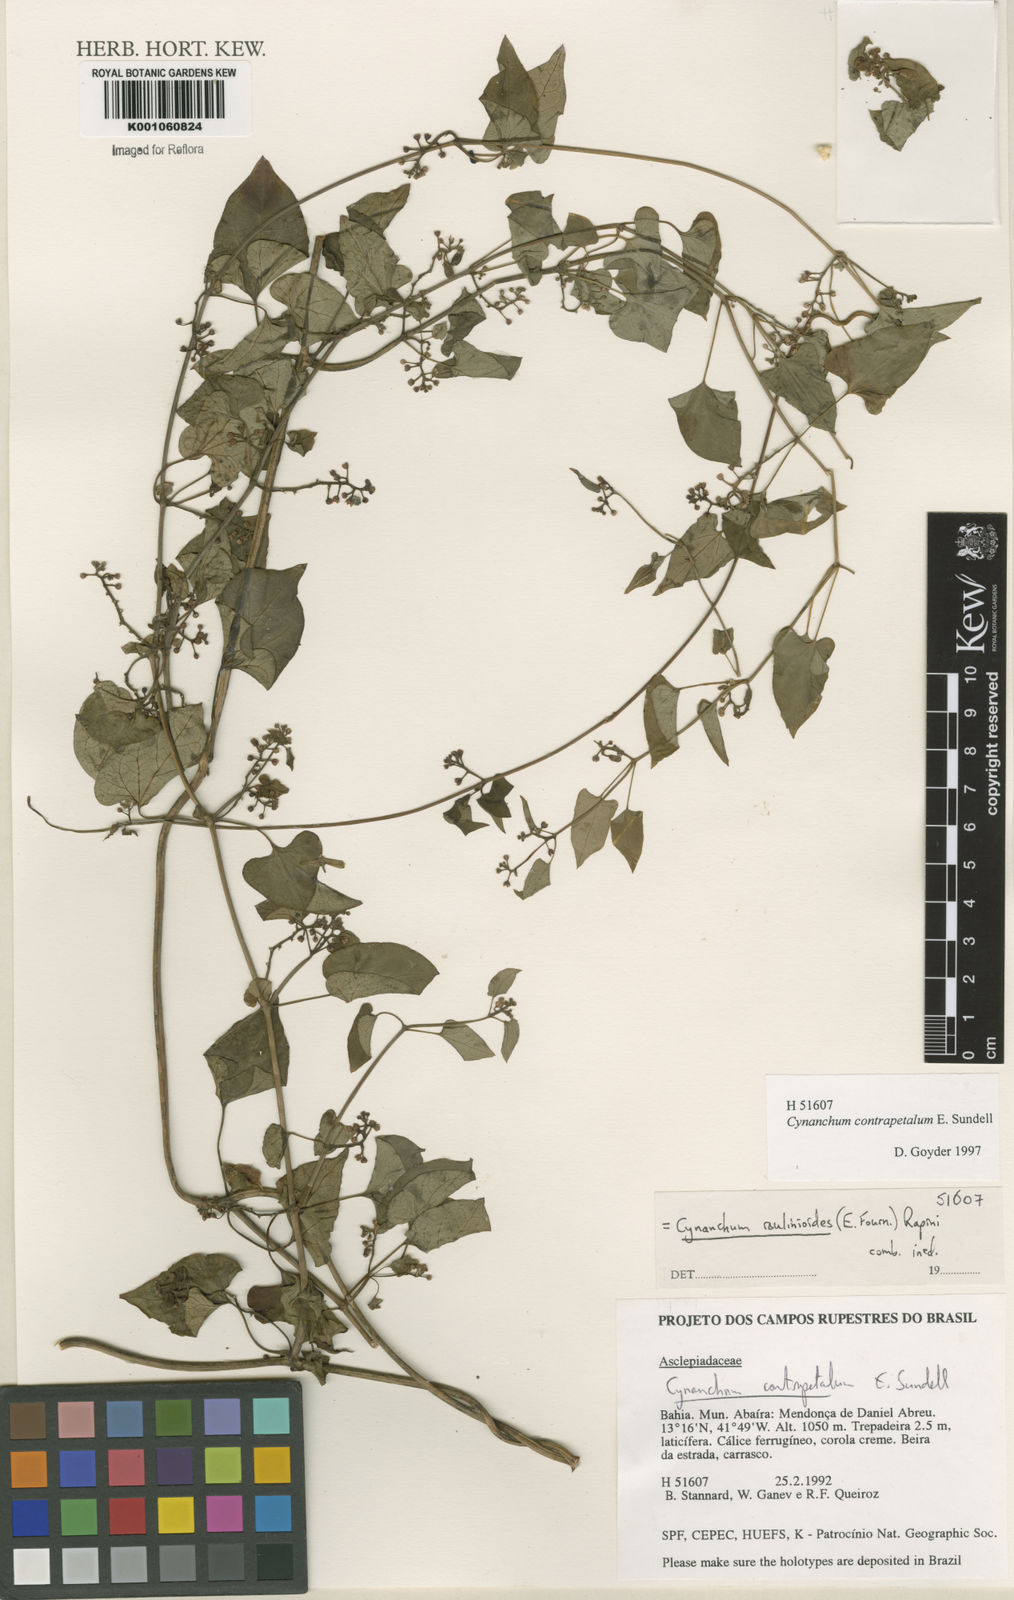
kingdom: Plantae
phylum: Tracheophyta
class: Magnoliopsida
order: Gentianales
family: Apocynaceae
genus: Cynanchum
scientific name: Cynanchum roulinioides
